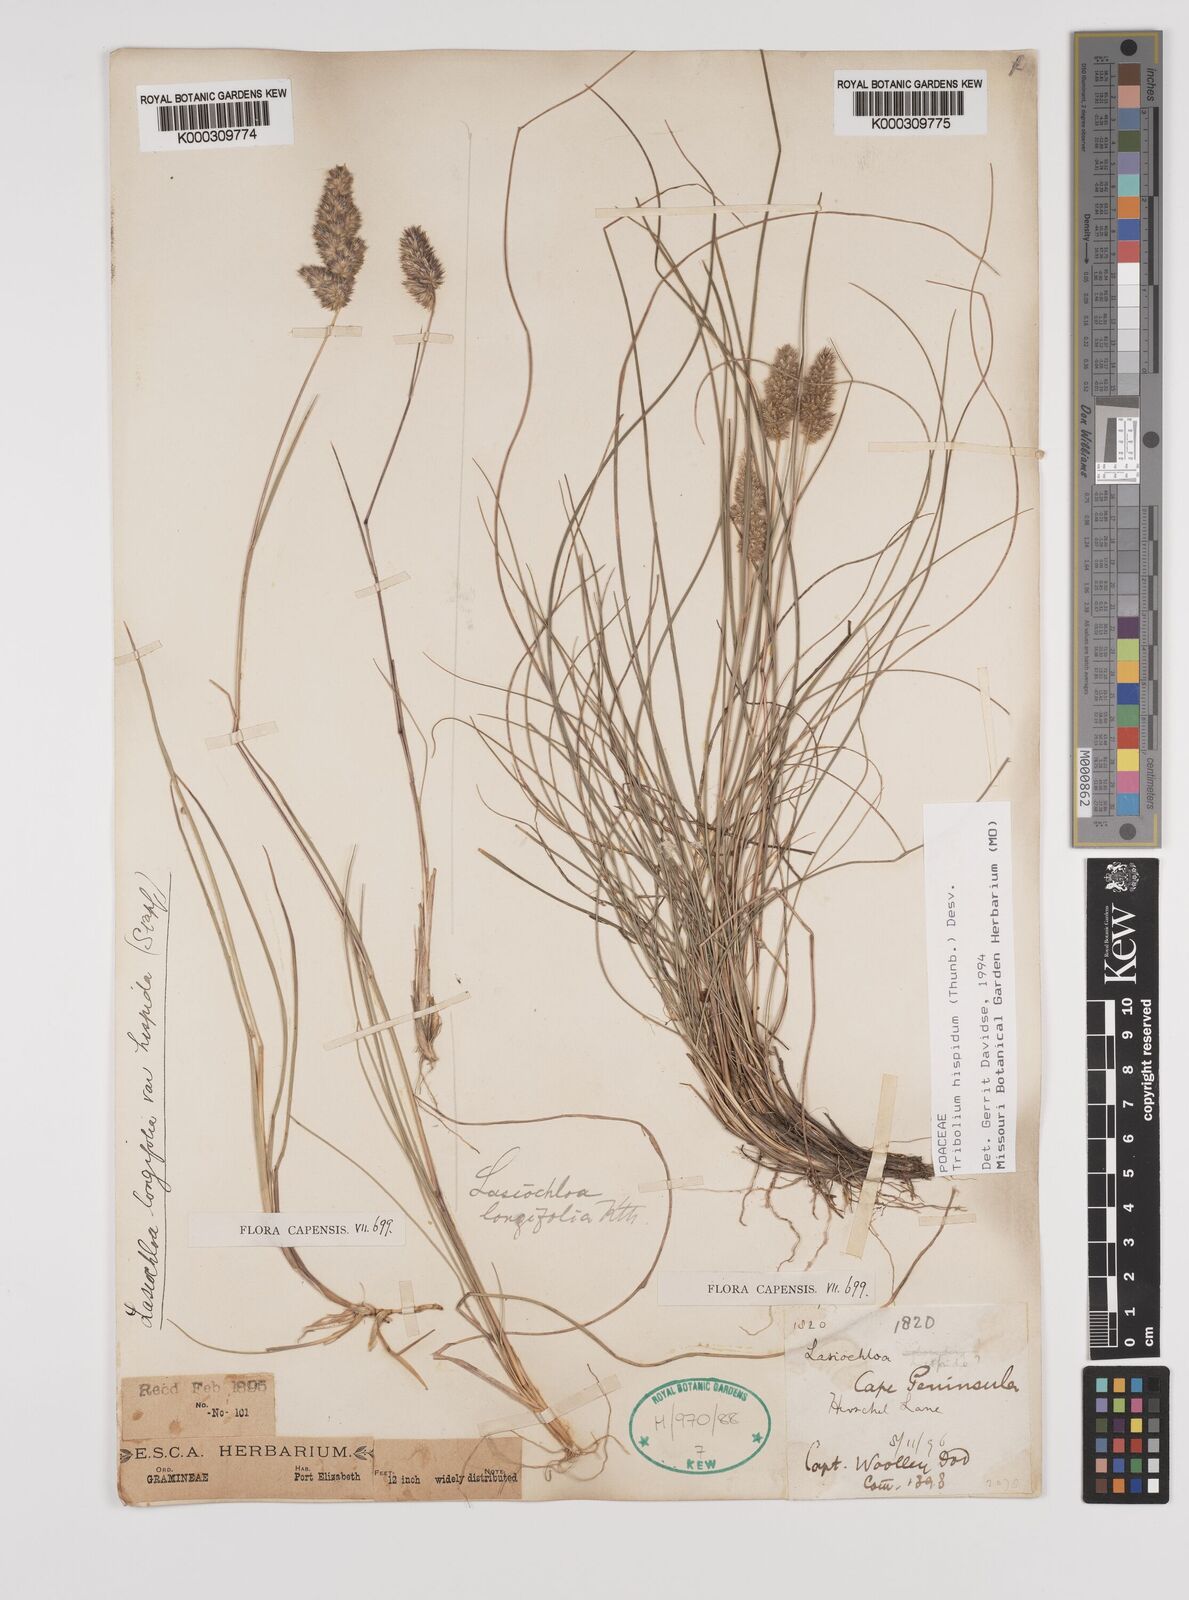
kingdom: Plantae
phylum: Tracheophyta
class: Liliopsida
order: Poales
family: Poaceae
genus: Tribolium
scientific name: Tribolium hispidum
